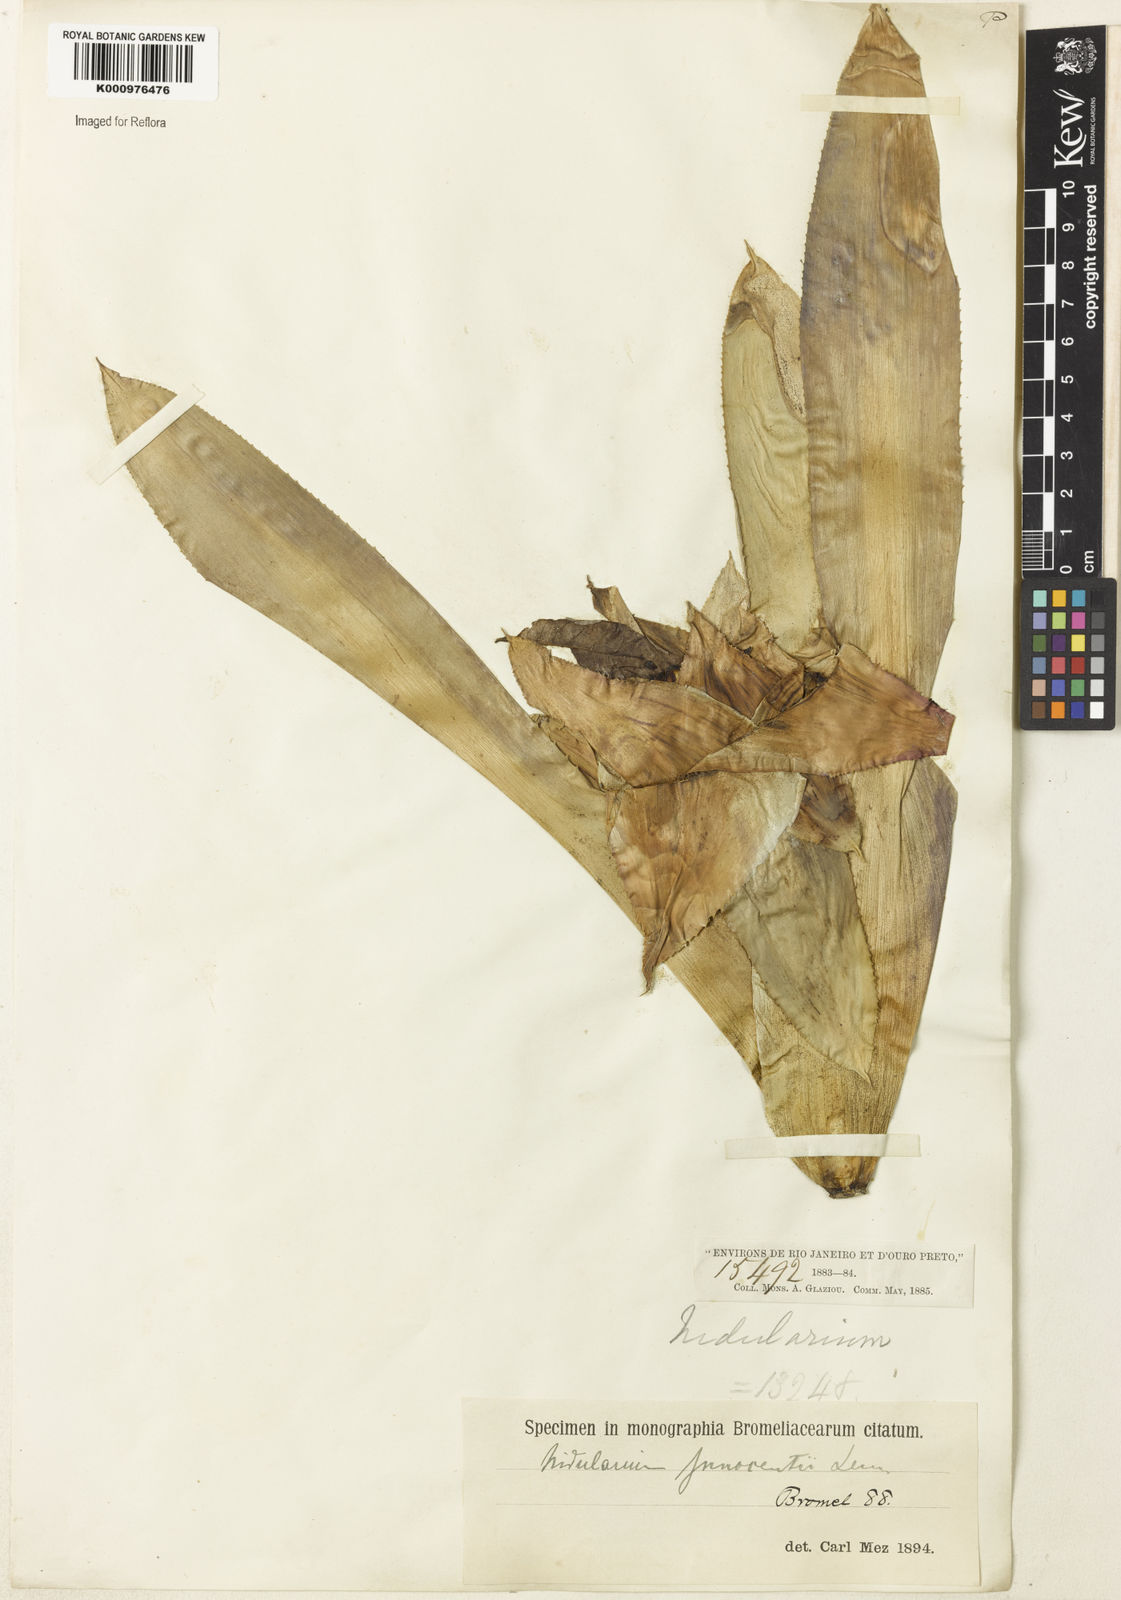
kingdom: Plantae
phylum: Tracheophyta
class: Liliopsida
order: Poales
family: Bromeliaceae
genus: Nidularium
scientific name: Nidularium rubens
